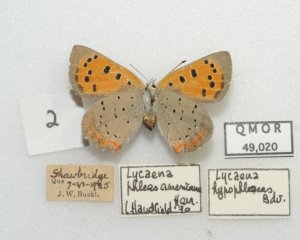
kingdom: Animalia
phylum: Arthropoda
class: Insecta
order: Lepidoptera
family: Lycaenidae
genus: Lycaena
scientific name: Lycaena phlaeas
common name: American Copper
